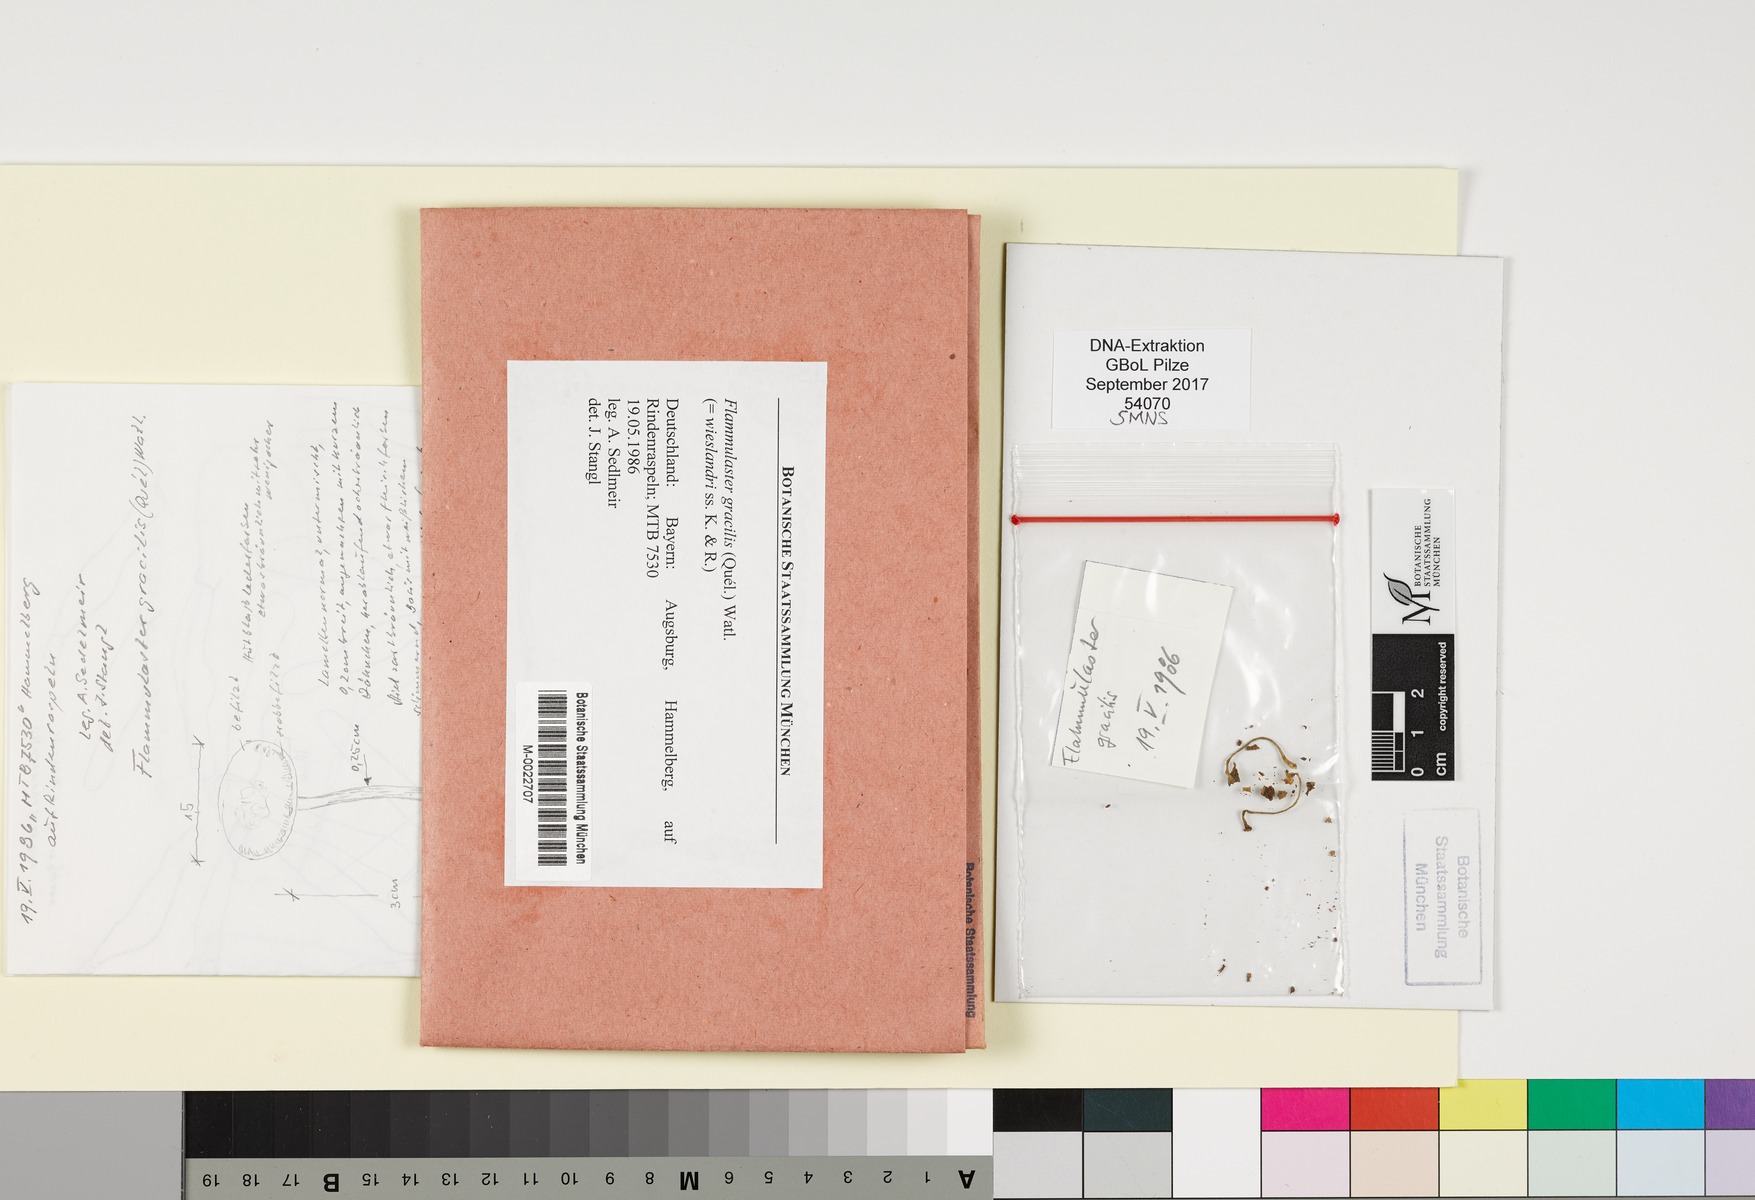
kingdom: Fungi
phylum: Basidiomycota
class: Agaricomycetes
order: Agaricales
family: Tubariaceae
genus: Flammulaster
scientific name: Flammulaster gracilis
